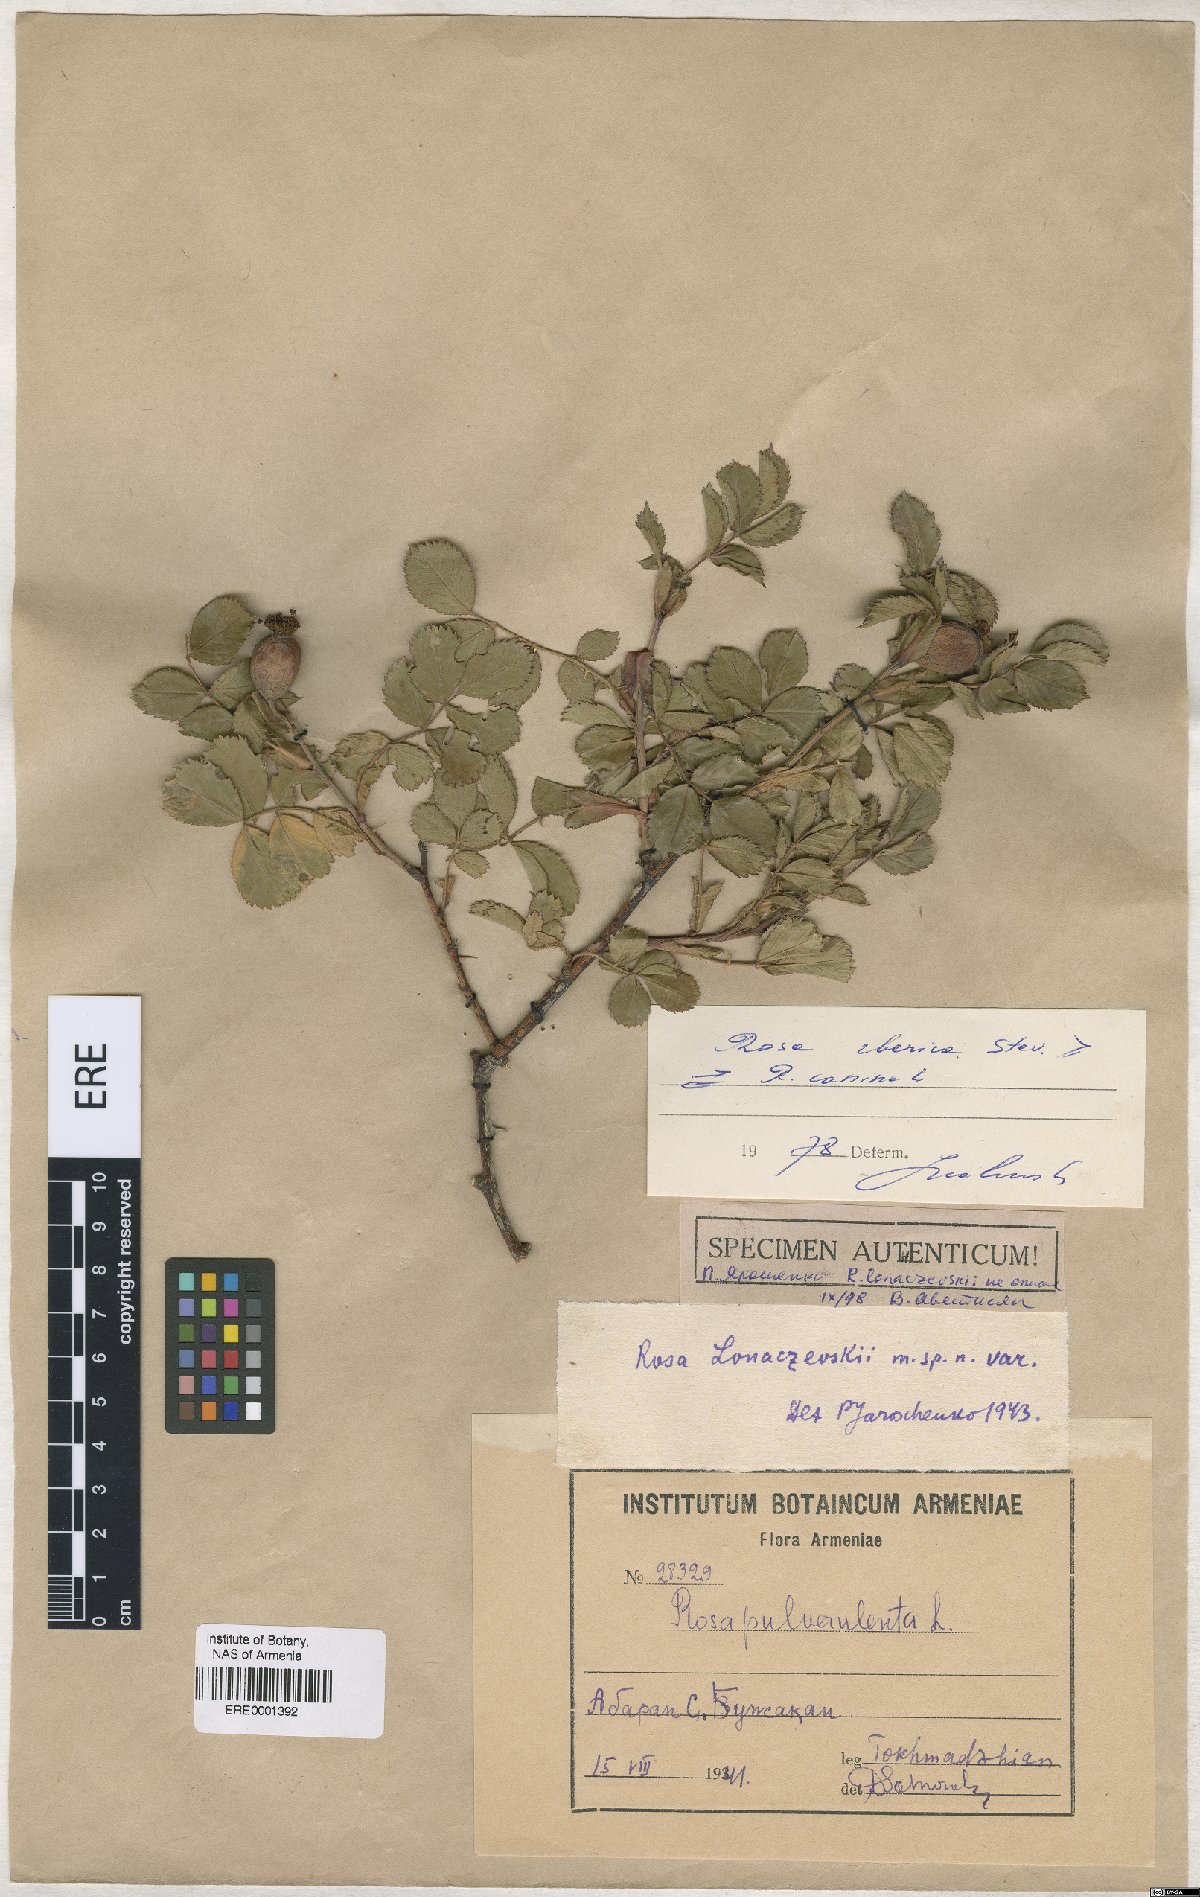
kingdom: Plantae
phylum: Tracheophyta
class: Magnoliopsida
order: Rosales
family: Rosaceae
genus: Rosa
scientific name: Rosa canina
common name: Dog rose
